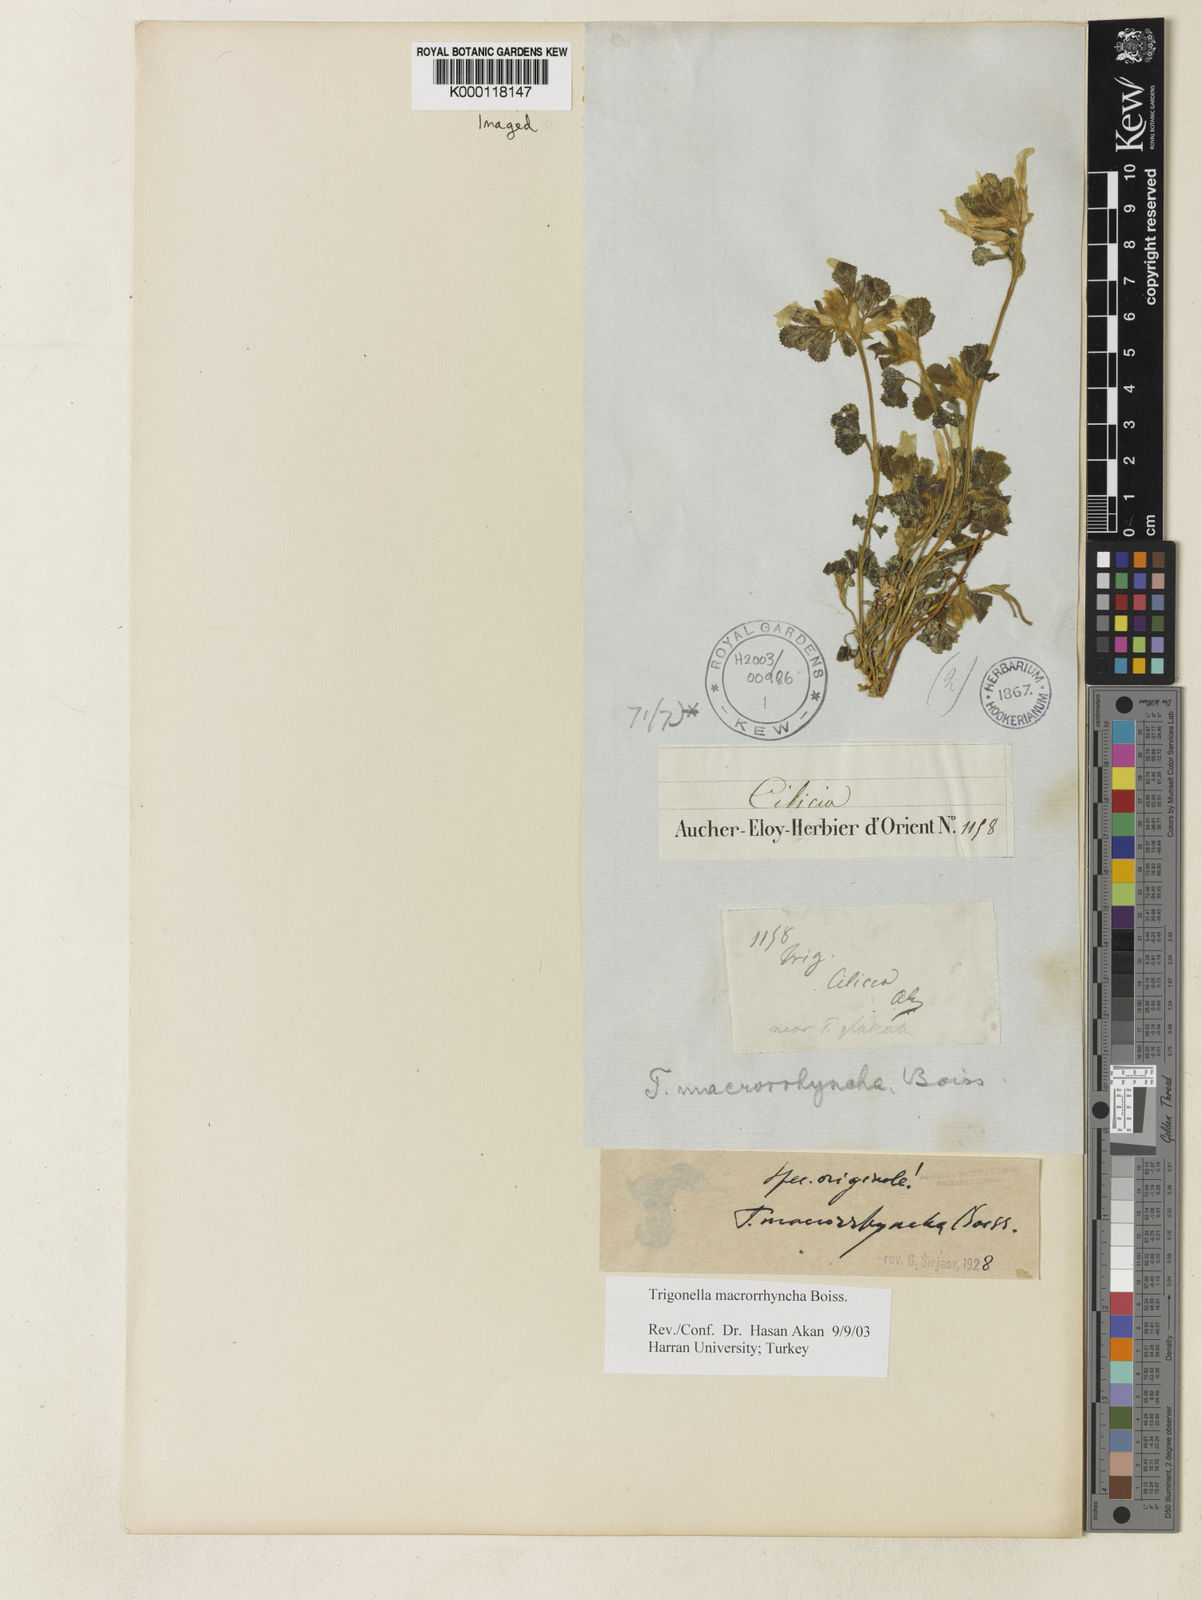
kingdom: Plantae
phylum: Tracheophyta
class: Magnoliopsida
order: Fabales
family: Fabaceae
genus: Trigonella
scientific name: Trigonella macrorrhyncha
